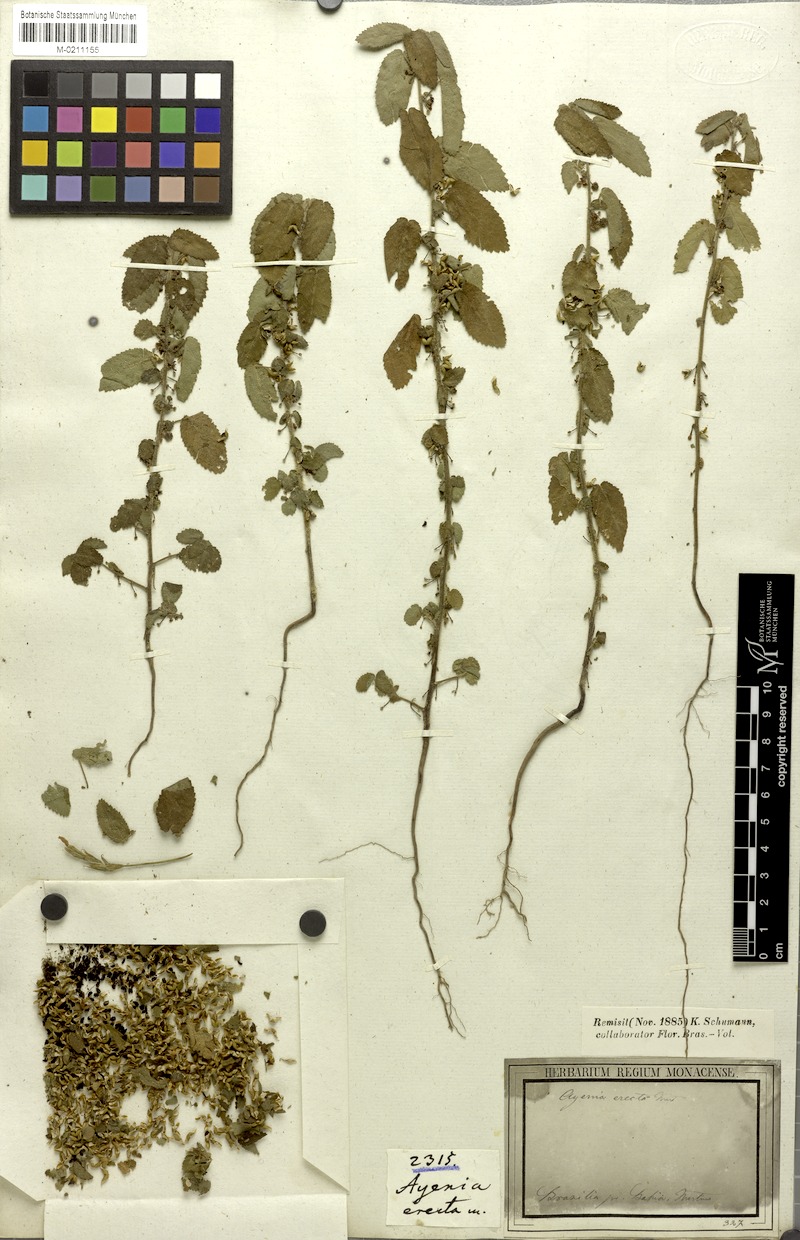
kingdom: Plantae
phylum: Tracheophyta
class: Magnoliopsida
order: Malvales
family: Malvaceae
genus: Ayenia
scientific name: Ayenia erecta
